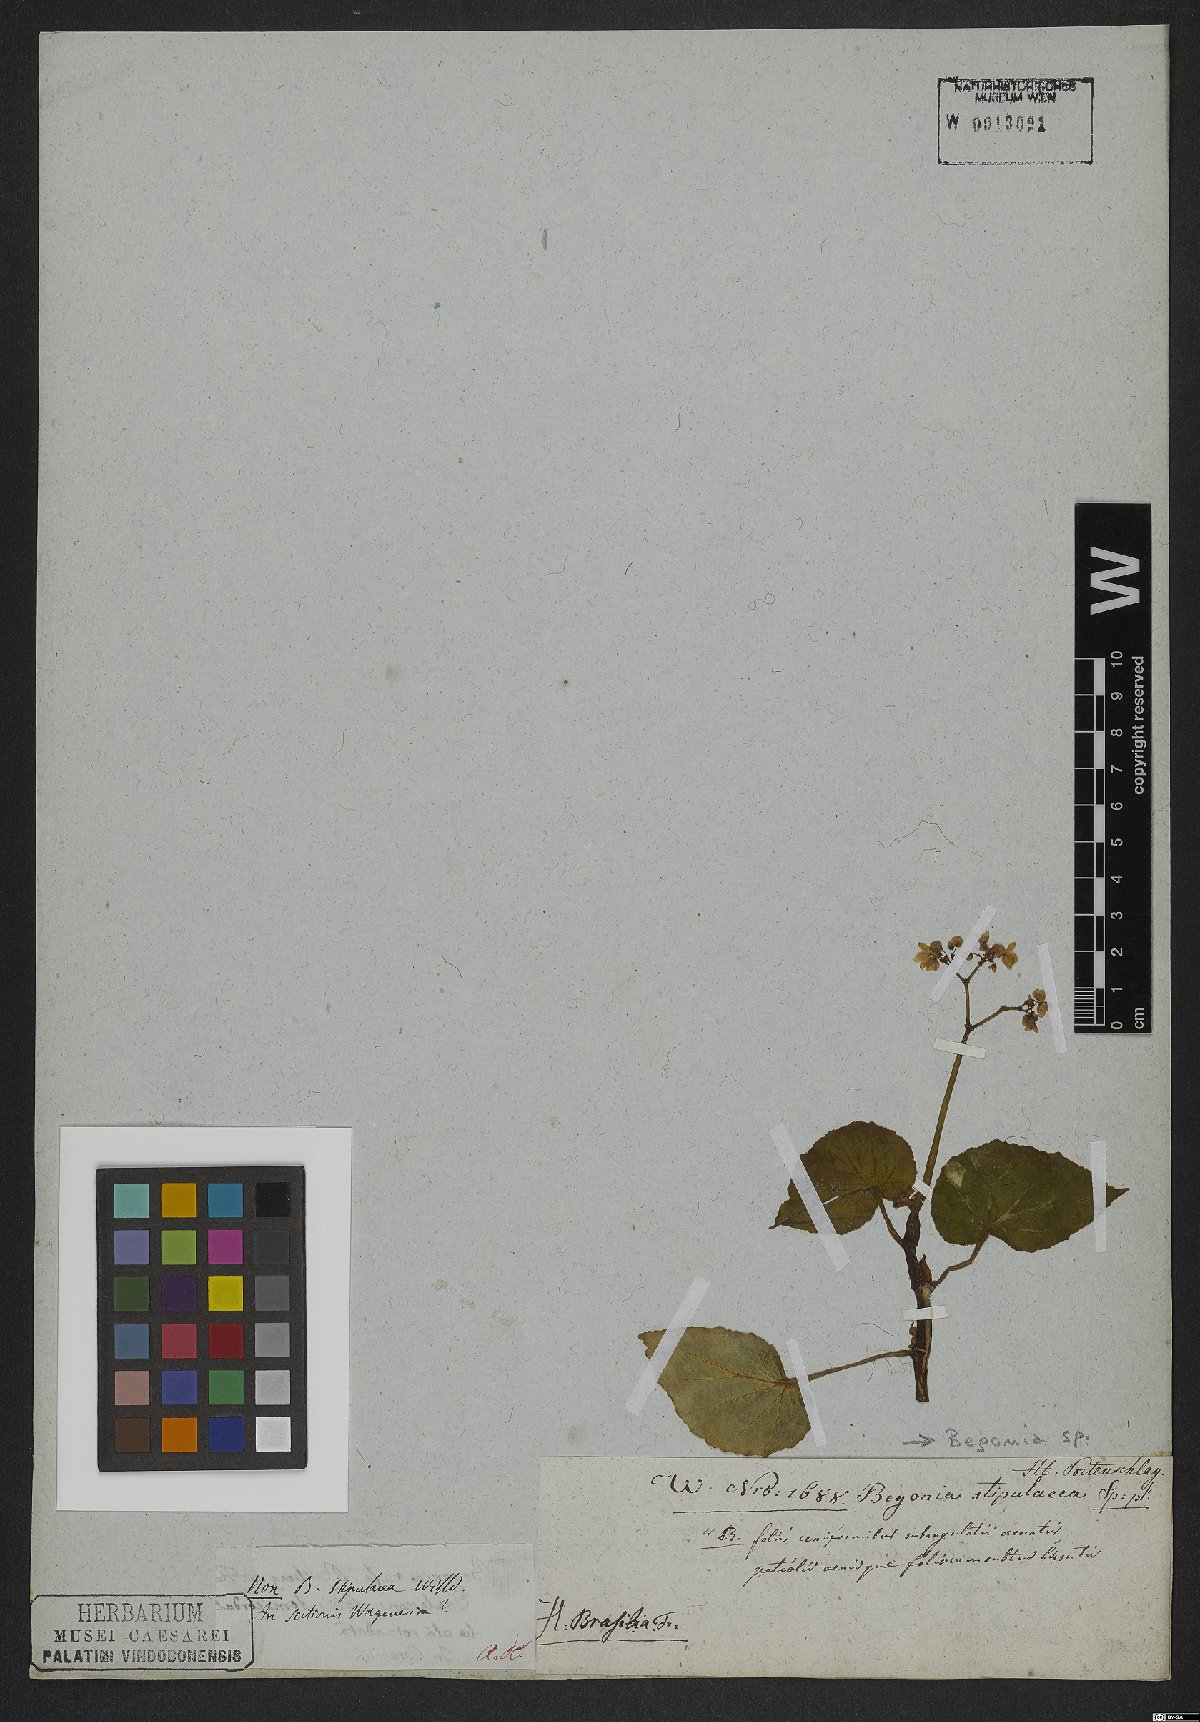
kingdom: Plantae
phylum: Tracheophyta
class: Magnoliopsida
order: Cucurbitales
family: Begoniaceae
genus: Begonia
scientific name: Begonia
